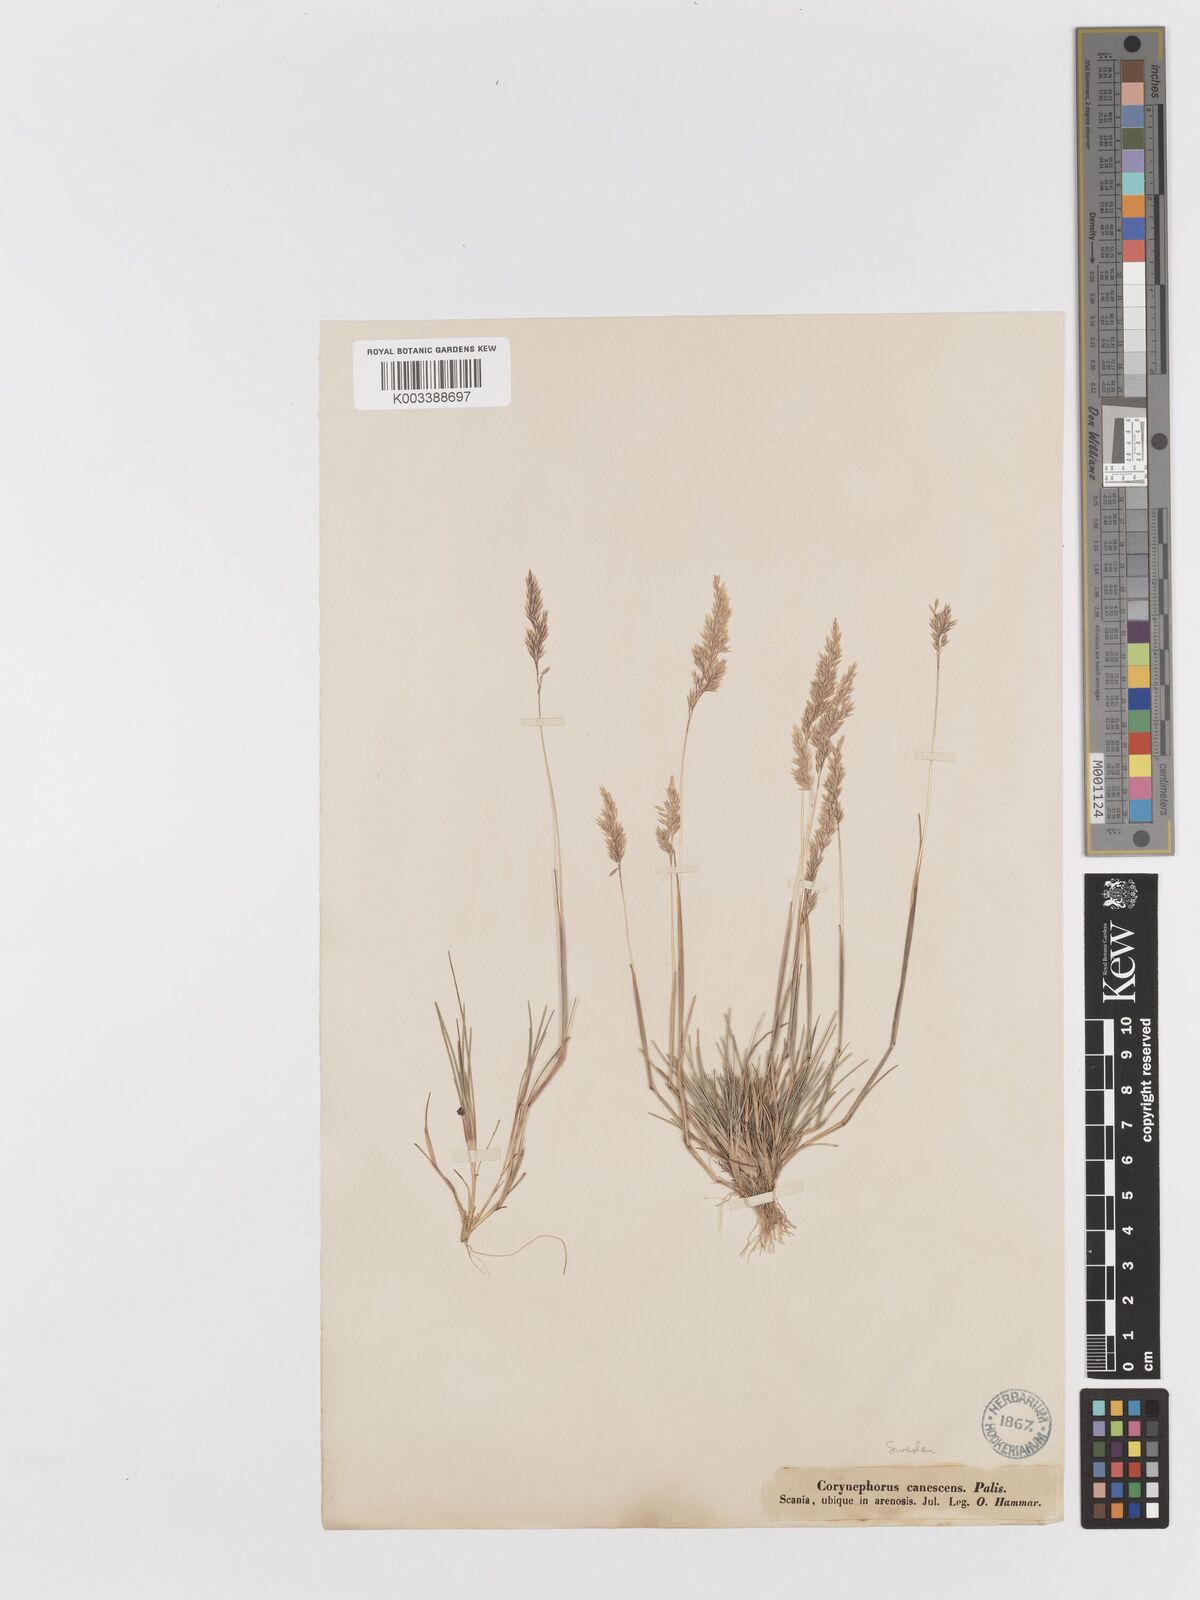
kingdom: Plantae
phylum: Tracheophyta
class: Liliopsida
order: Poales
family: Poaceae
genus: Corynephorus
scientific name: Corynephorus canescens
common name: Grey hair-grass
